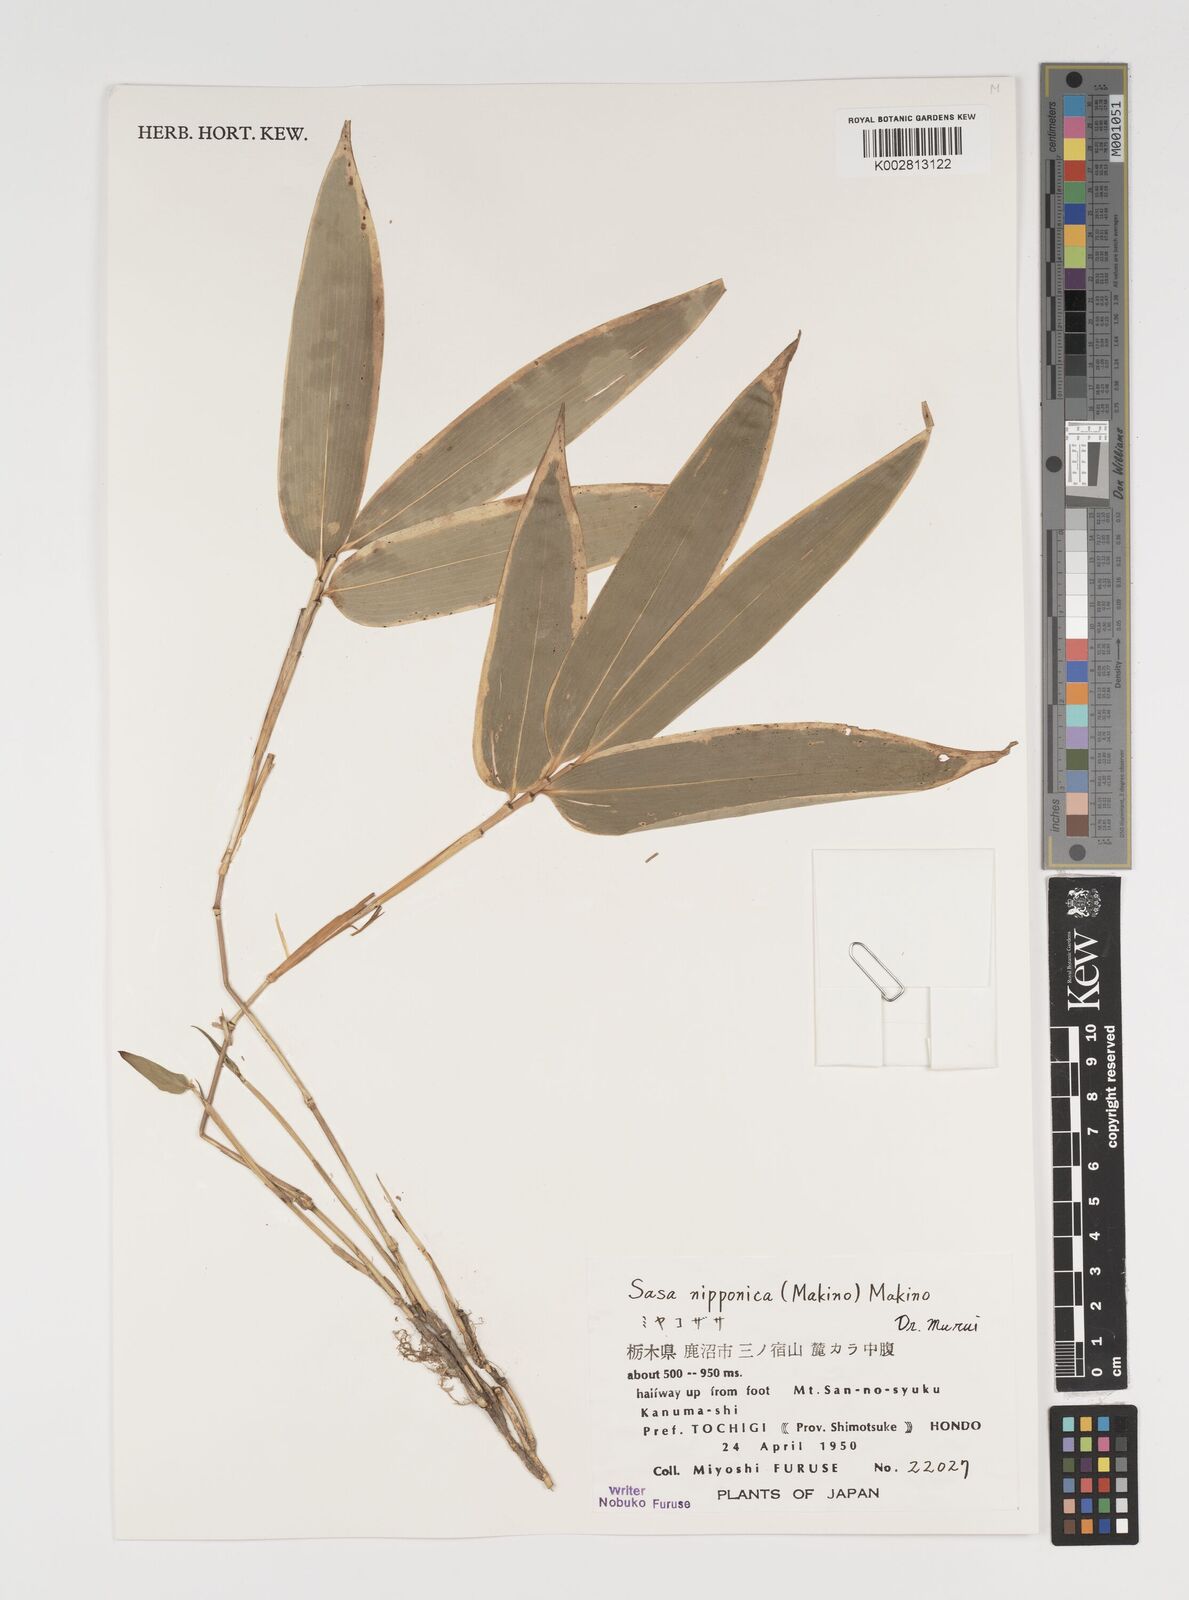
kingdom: Plantae
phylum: Tracheophyta
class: Liliopsida
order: Poales
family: Poaceae
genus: Sasa
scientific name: Sasa nipponica
